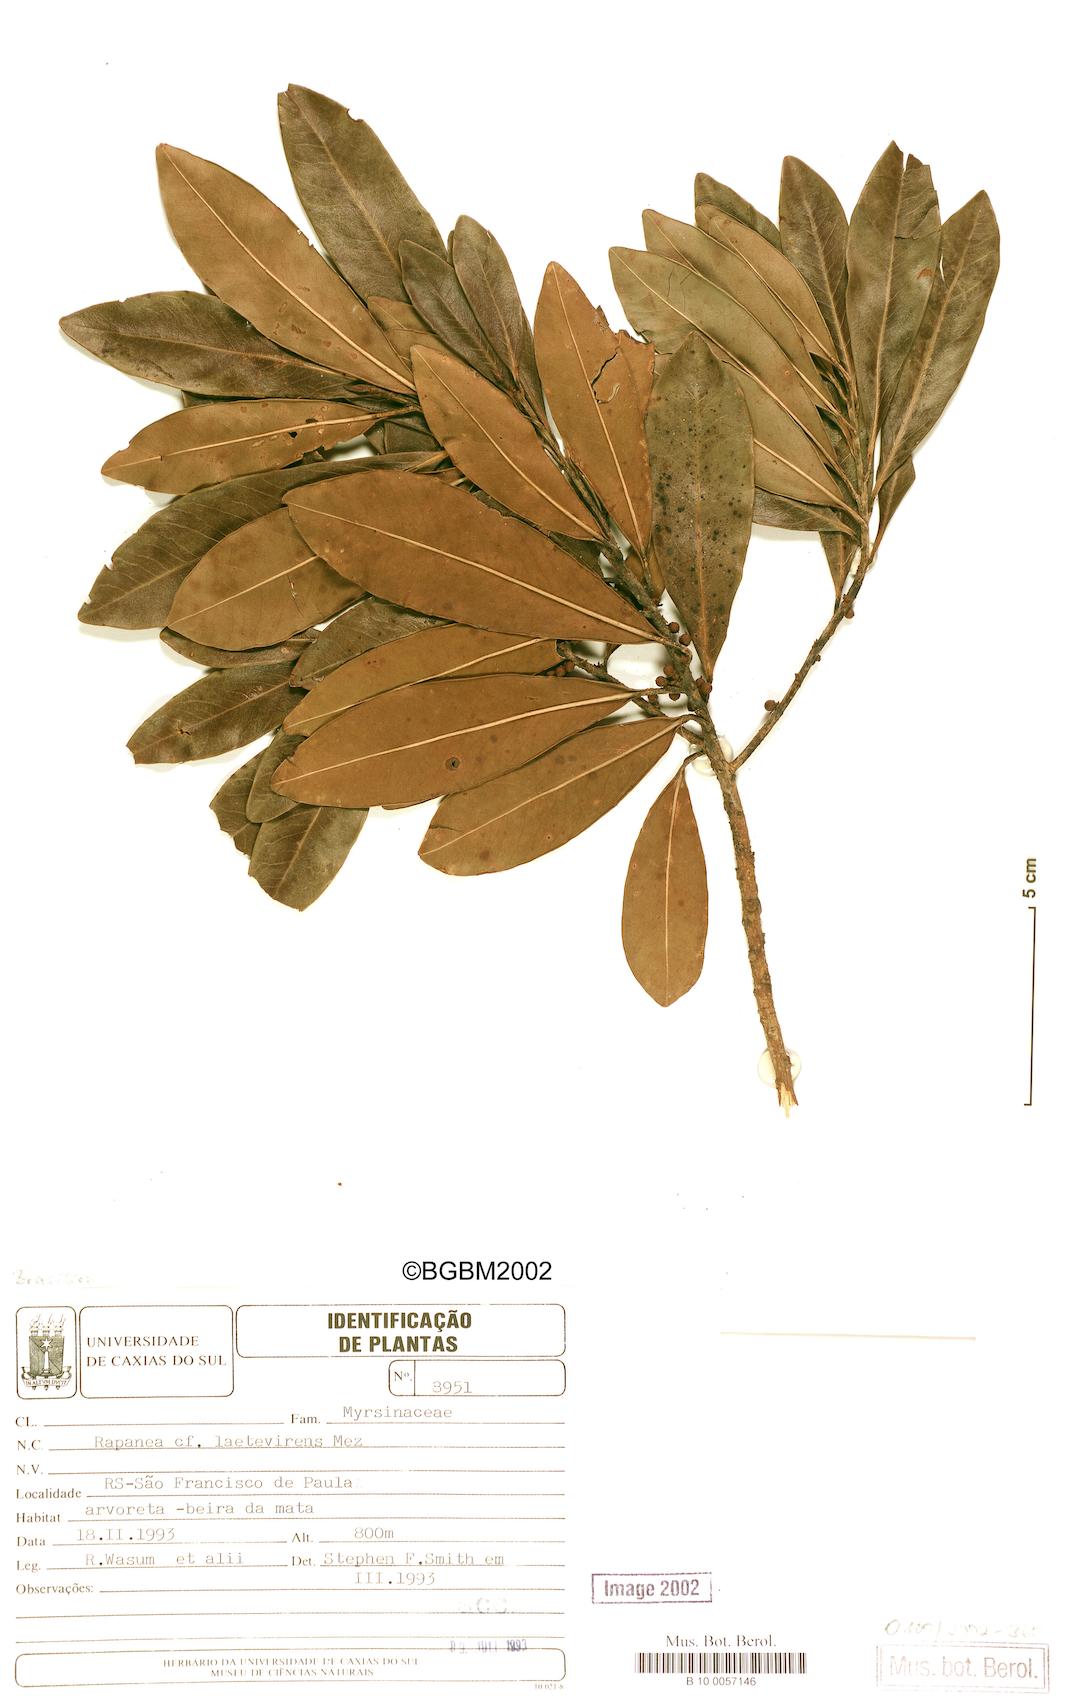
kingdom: Plantae
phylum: Tracheophyta
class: Magnoliopsida
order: Ericales
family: Primulaceae
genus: Myrsine
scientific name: Myrsine laetevirens
